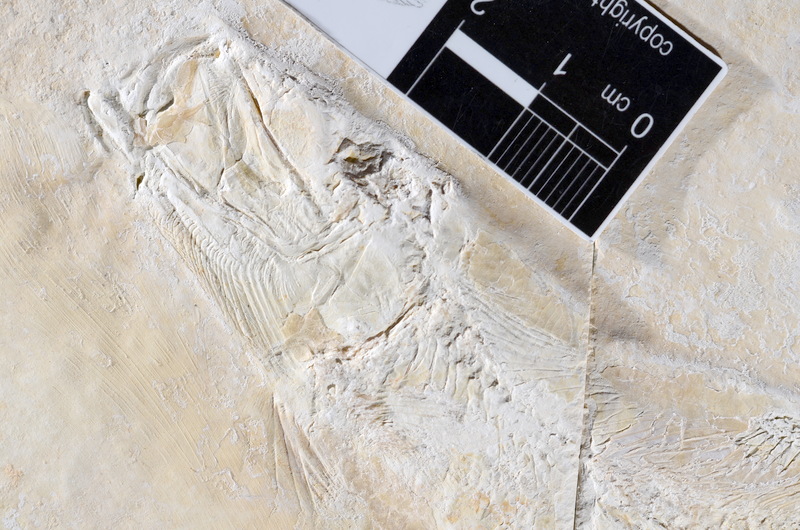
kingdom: Animalia
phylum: Chordata
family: Ascalaboidae
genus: Tharsis
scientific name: Tharsis dubius
